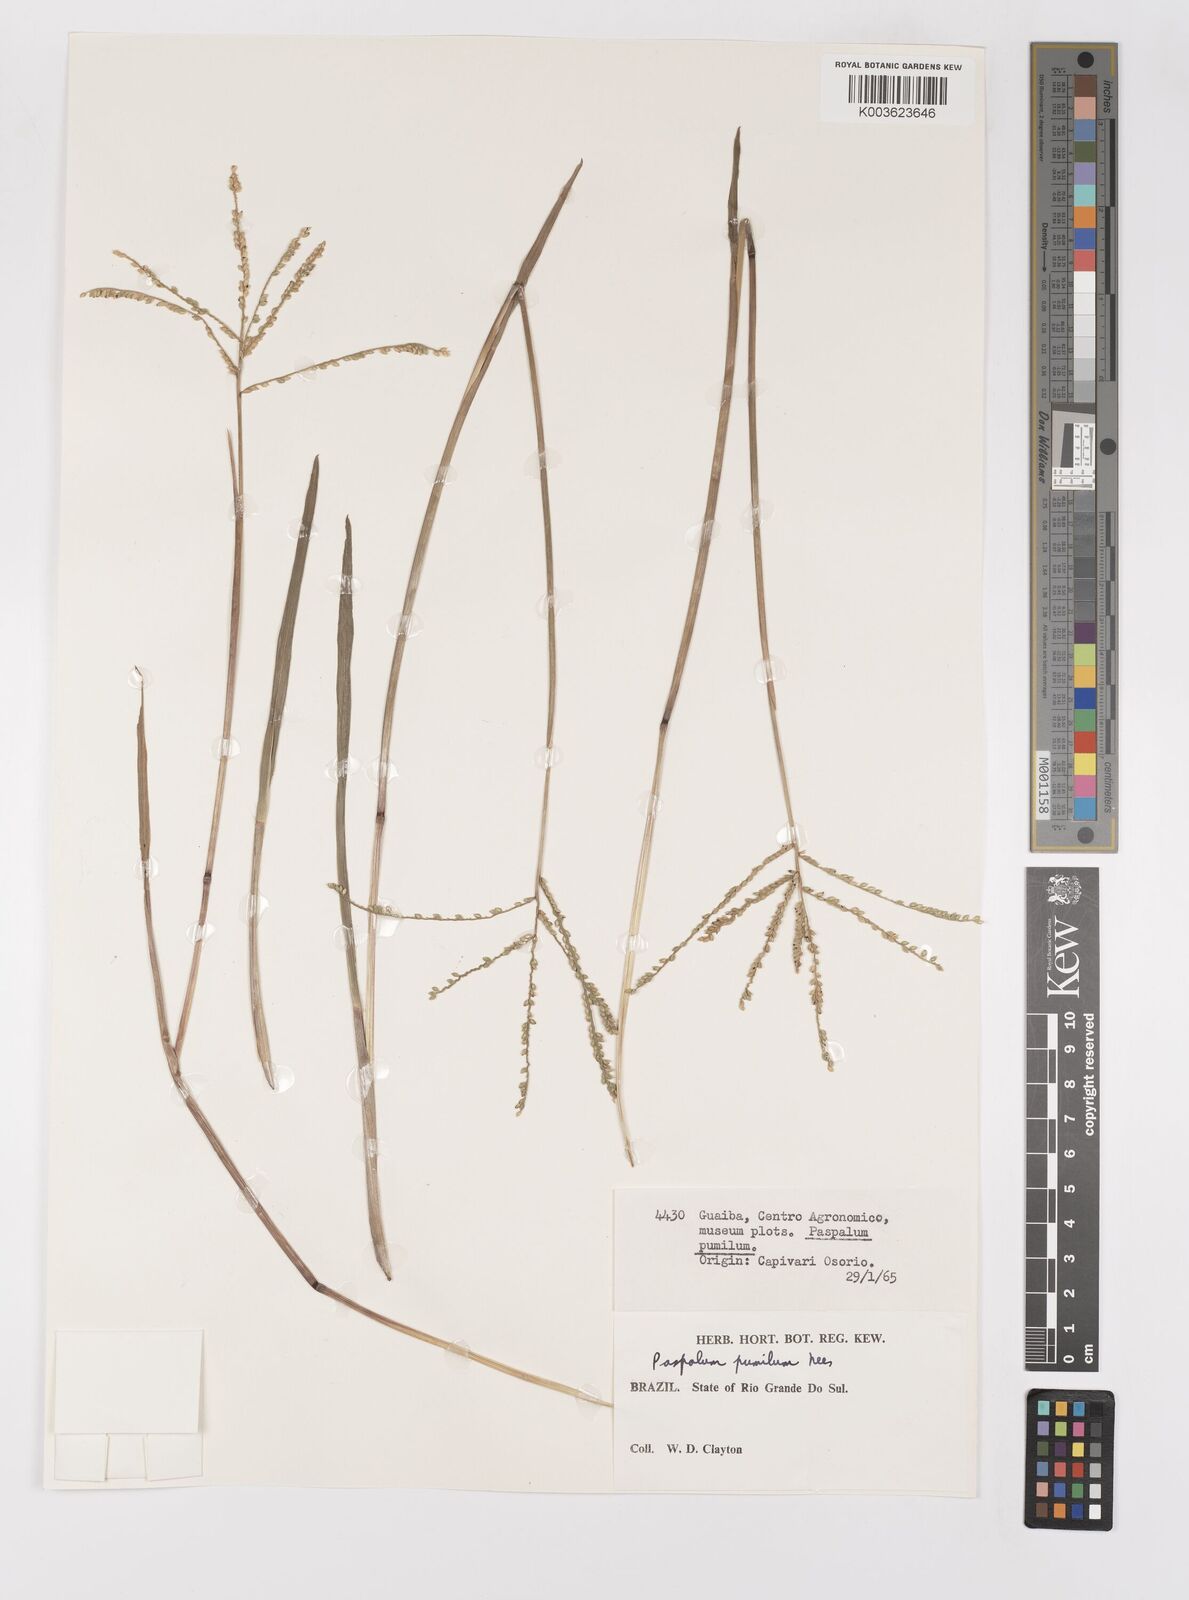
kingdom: Plantae
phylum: Tracheophyta
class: Liliopsida
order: Poales
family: Poaceae
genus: Paspalum
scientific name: Paspalum pumilum
